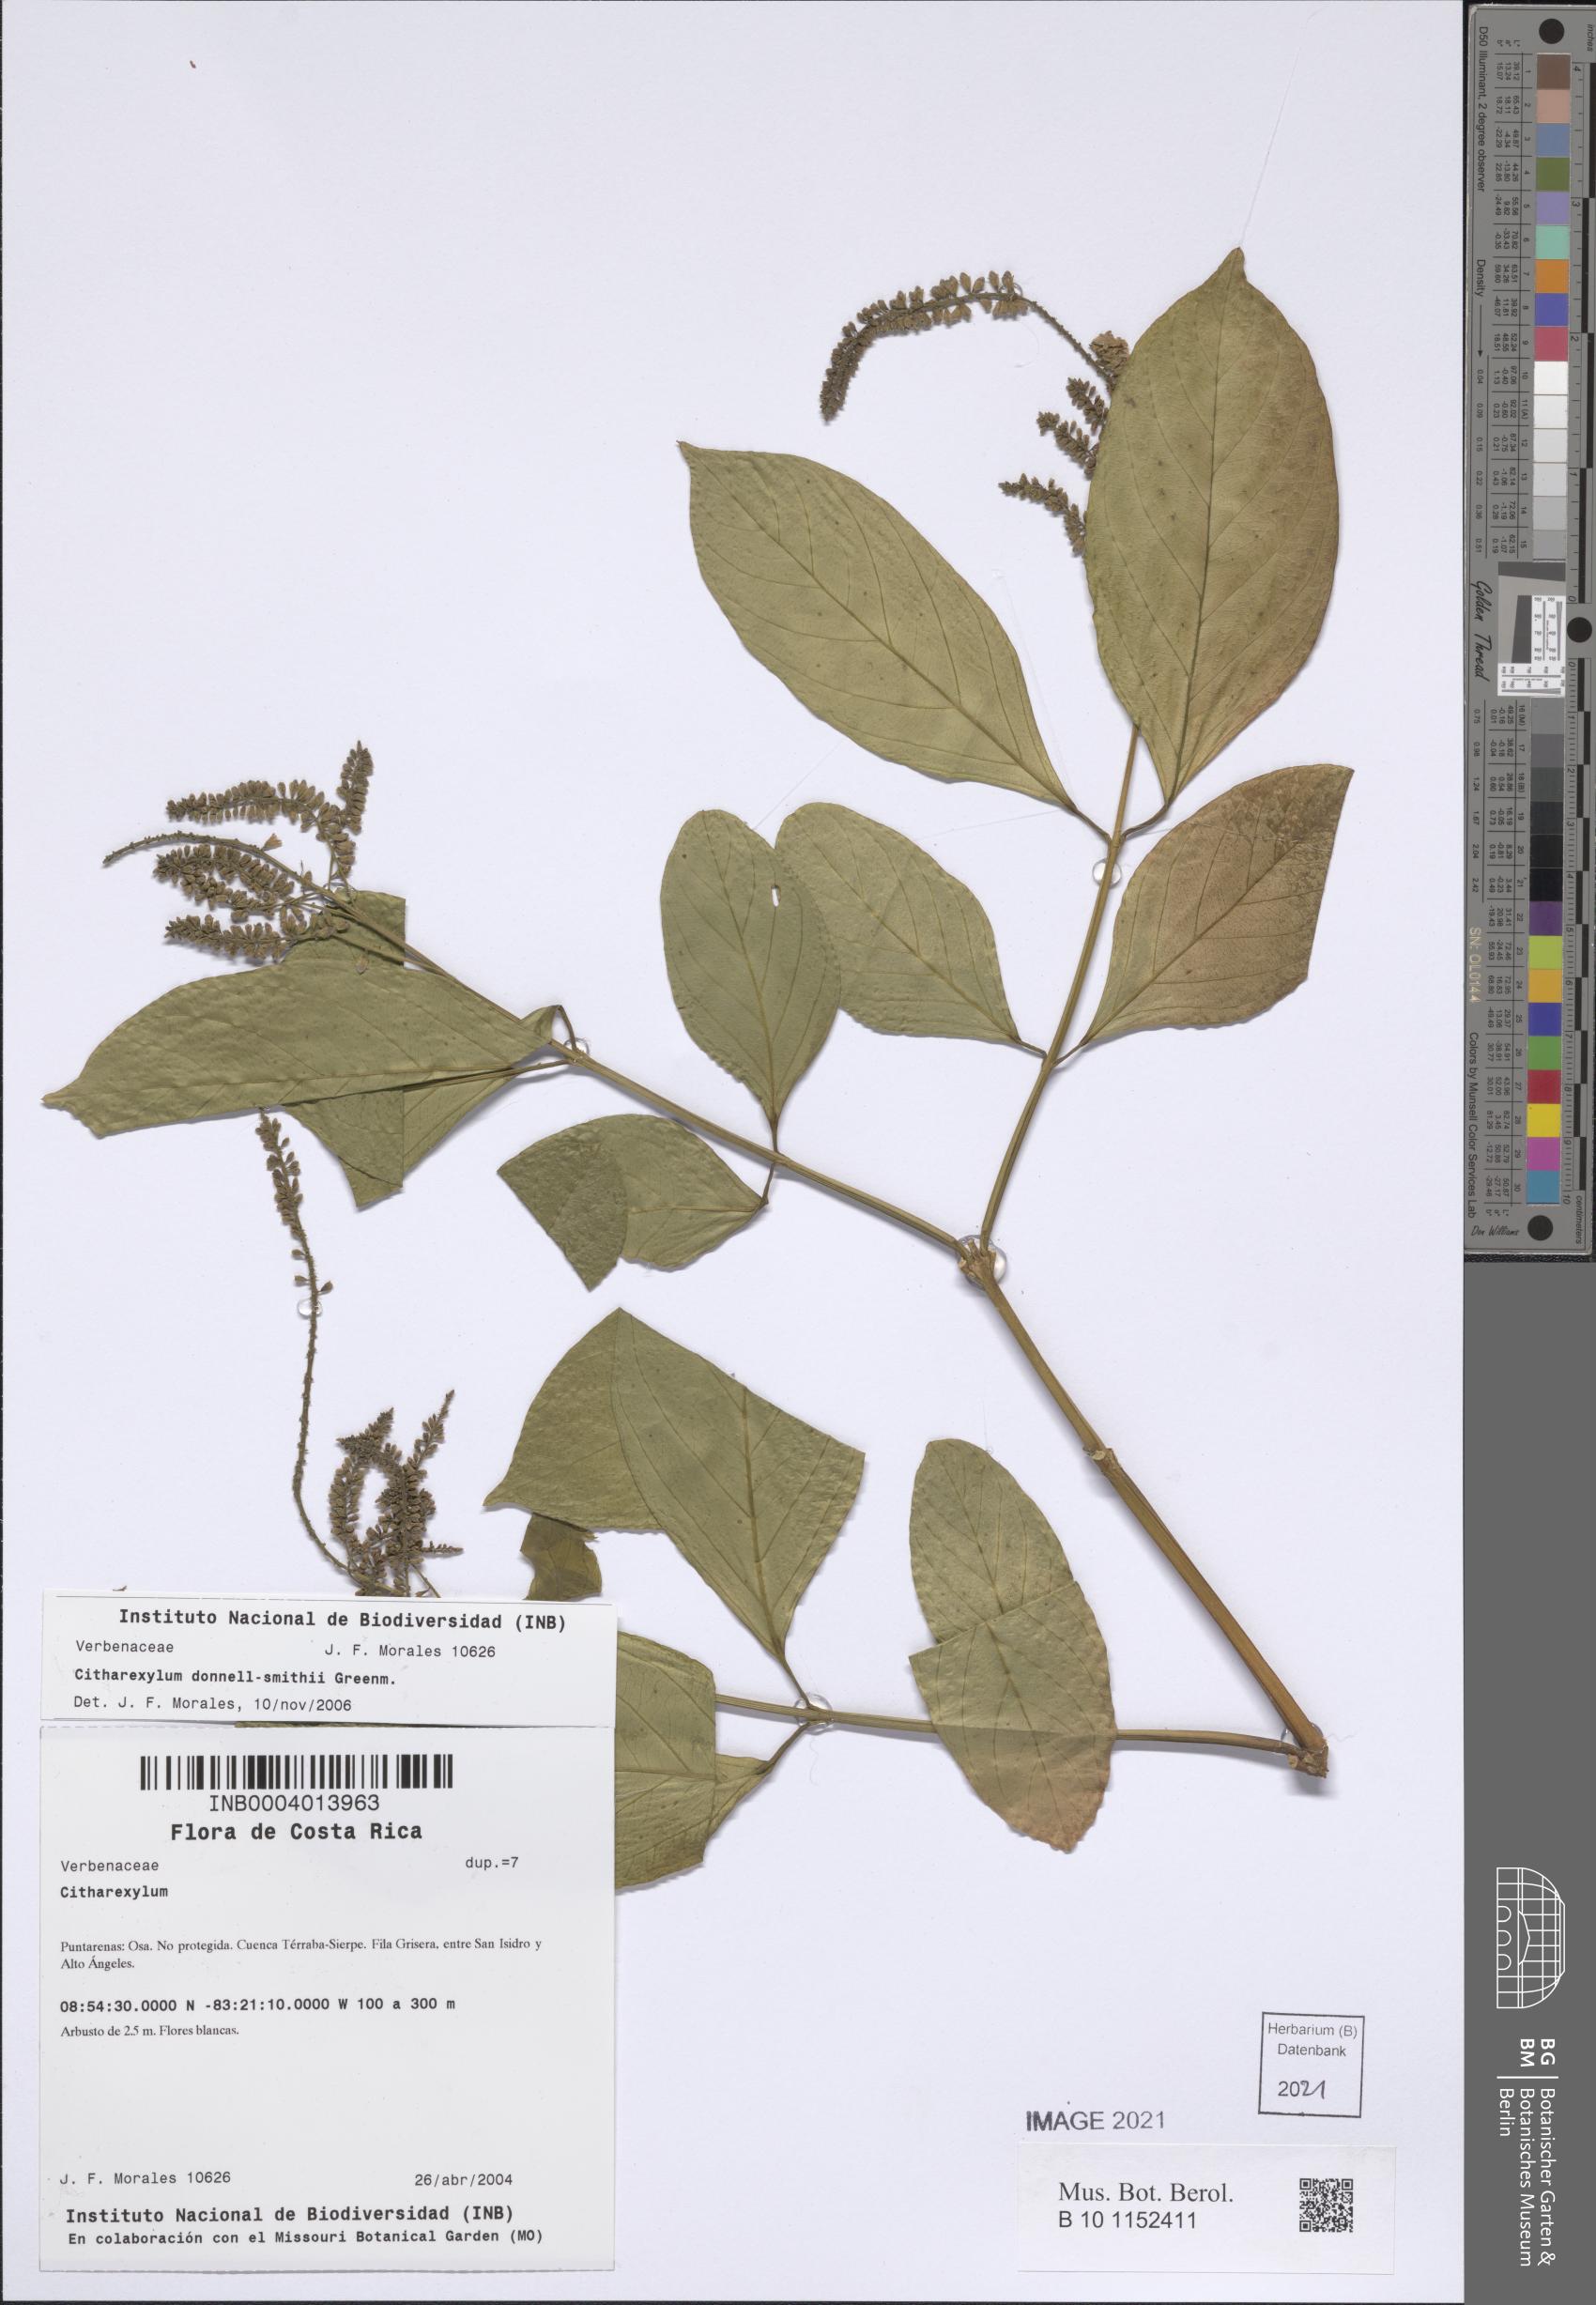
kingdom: Plantae
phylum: Tracheophyta
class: Magnoliopsida
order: Lamiales
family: Verbenaceae
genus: Citharexylum
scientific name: Citharexylum cooperi
